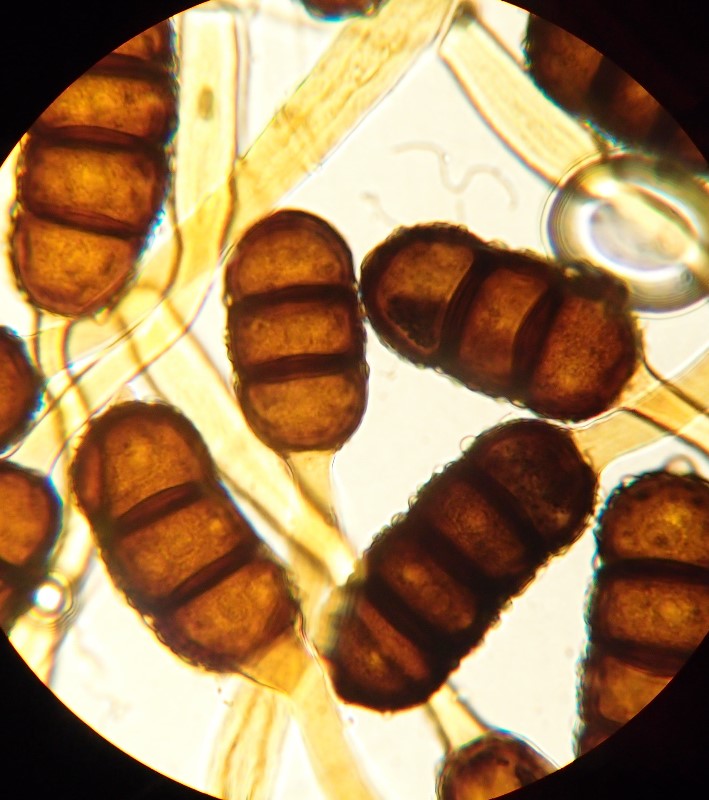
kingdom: Fungi
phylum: Basidiomycota
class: Pucciniomycetes
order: Pucciniales
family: Phragmidiaceae
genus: Phragmidium
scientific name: Phragmidium violaceum
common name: violet flercellerust
